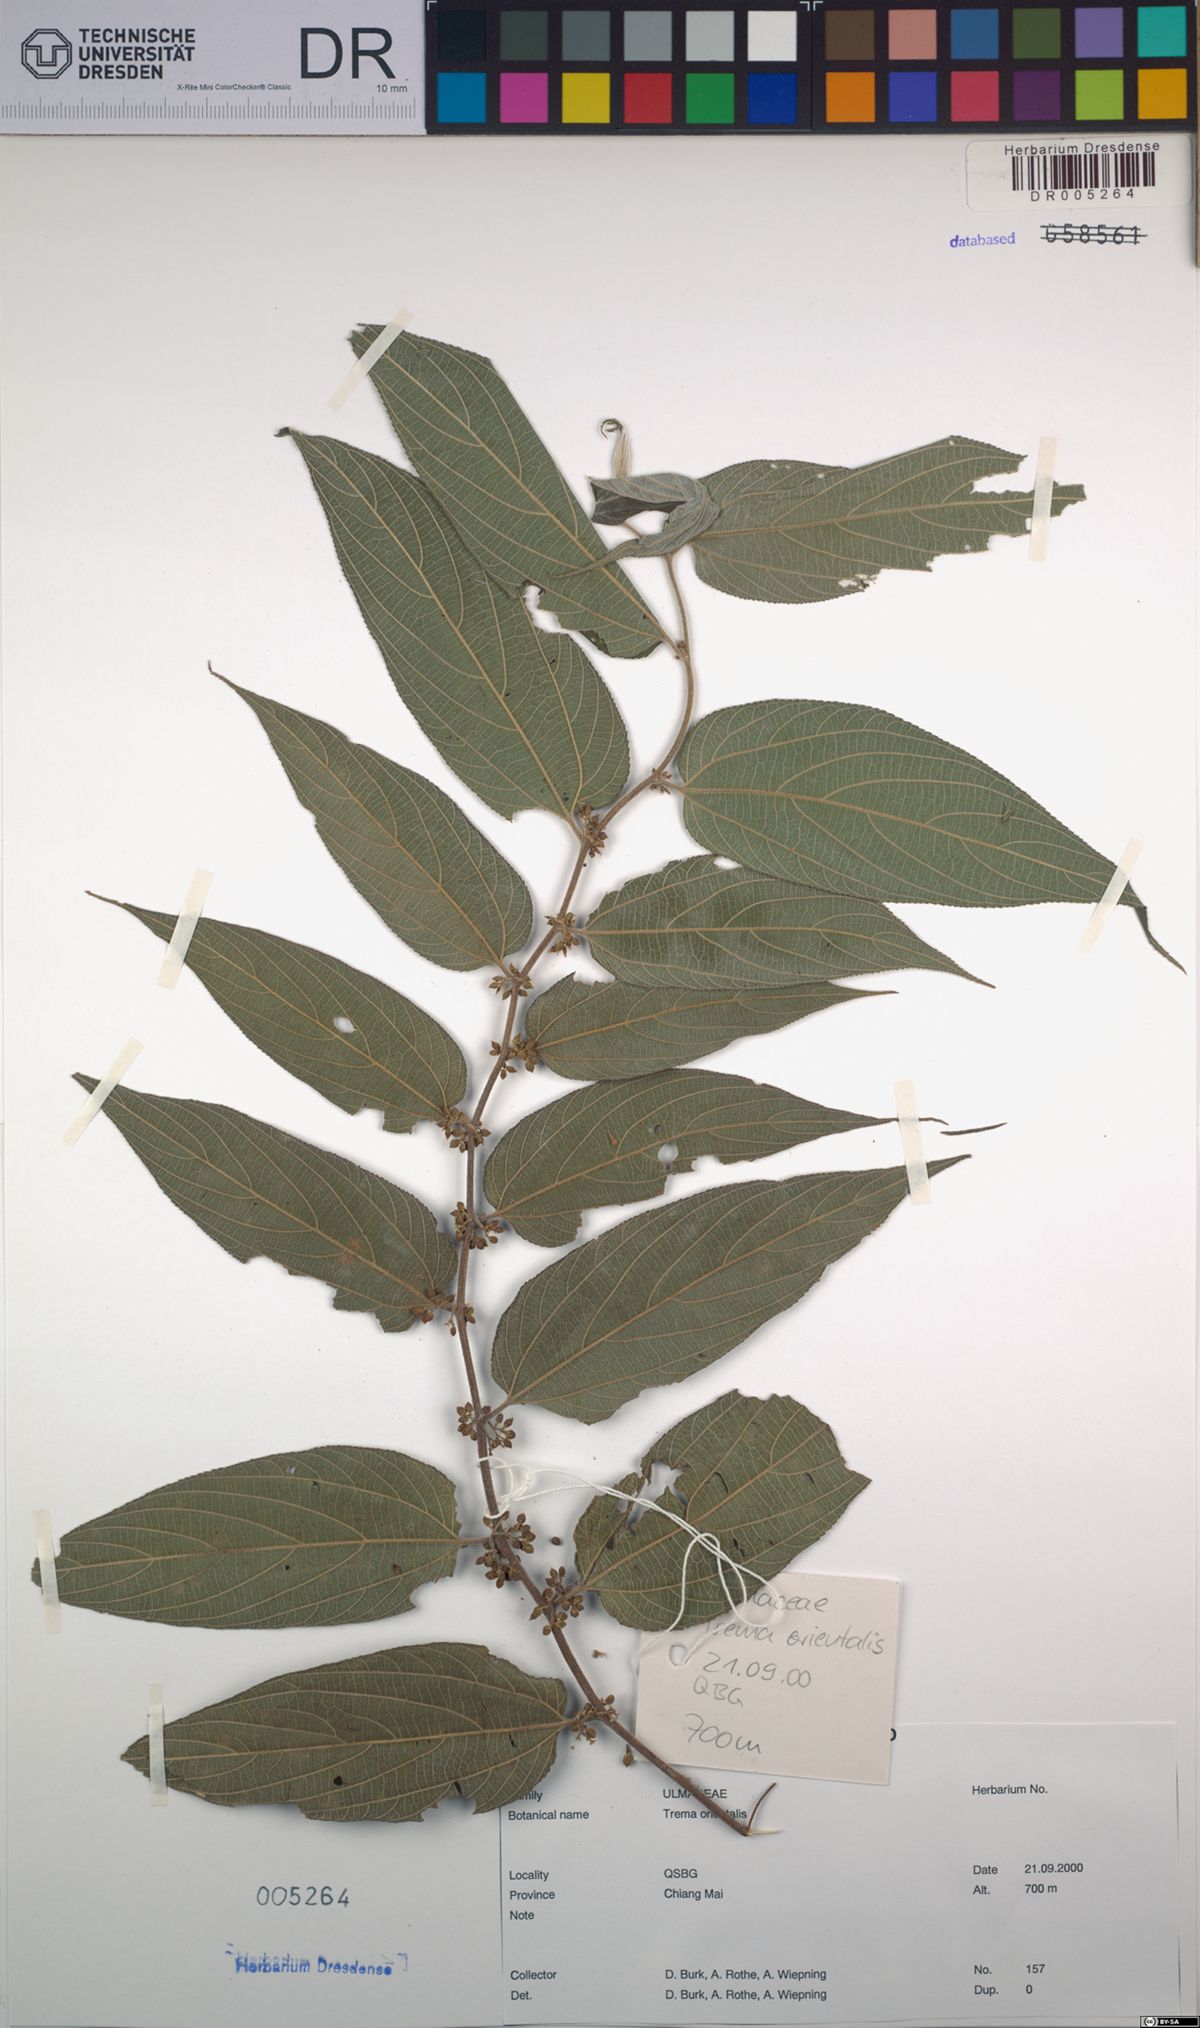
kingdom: Plantae
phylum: Tracheophyta
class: Magnoliopsida
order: Rosales
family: Cannabaceae
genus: Trema
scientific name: Trema orientale
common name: Indian charcoal tree
